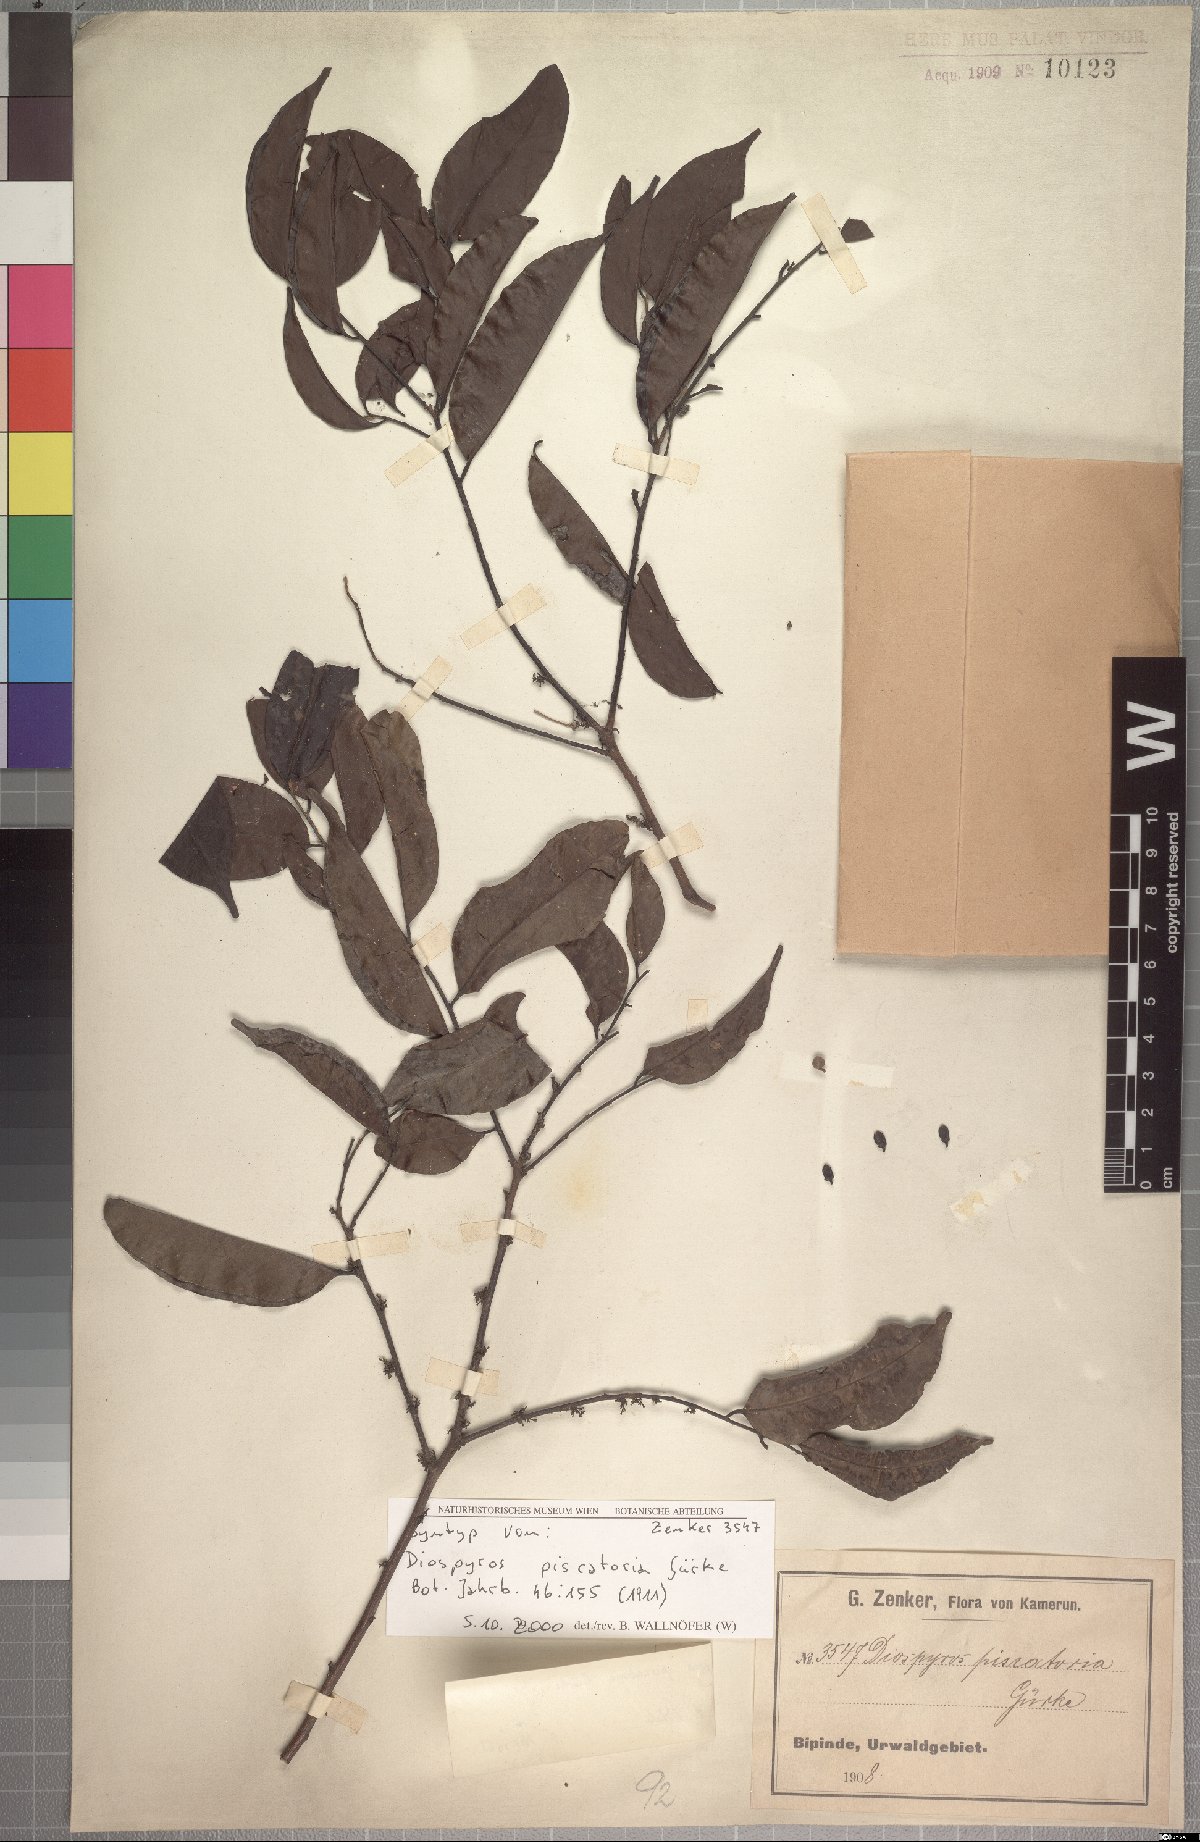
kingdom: Plantae
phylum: Tracheophyta
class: Magnoliopsida
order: Ericales
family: Ebenaceae
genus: Diospyros
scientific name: Diospyros piscatoria
